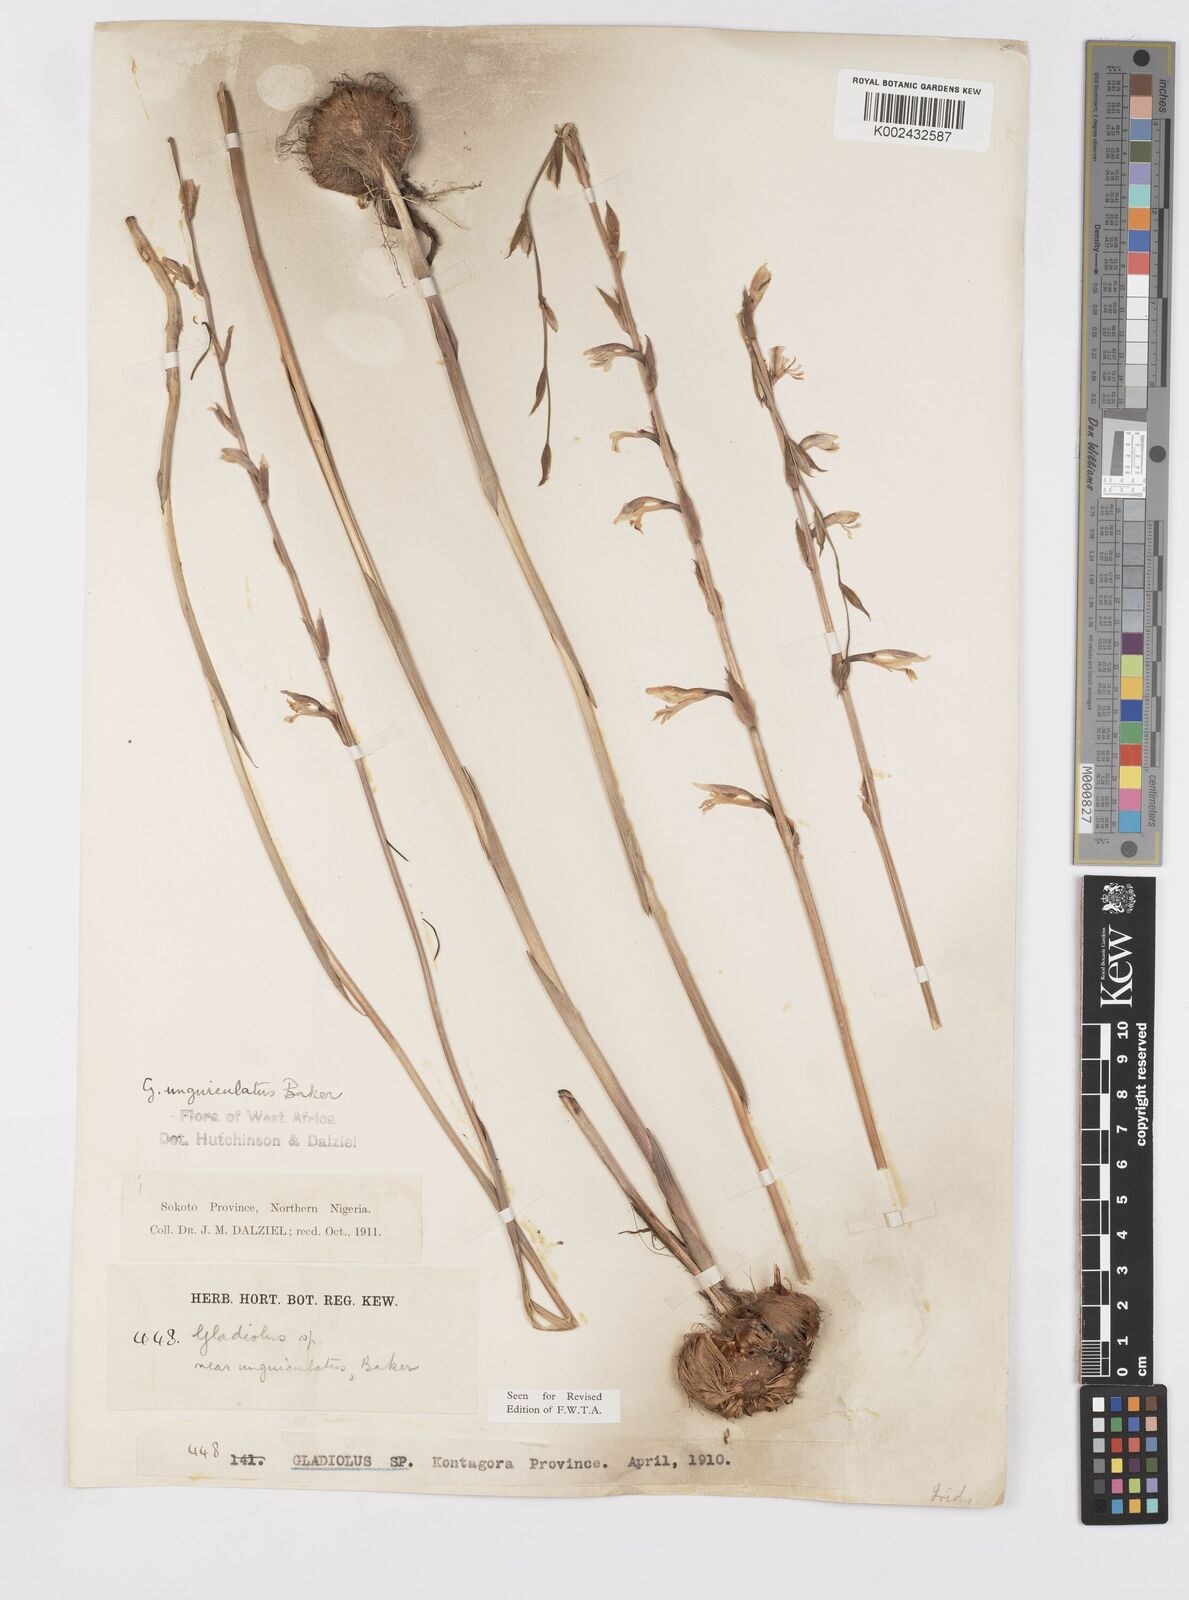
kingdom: Plantae
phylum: Tracheophyta
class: Liliopsida
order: Asparagales
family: Iridaceae
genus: Gladiolus
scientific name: Gladiolus unguiculatus
